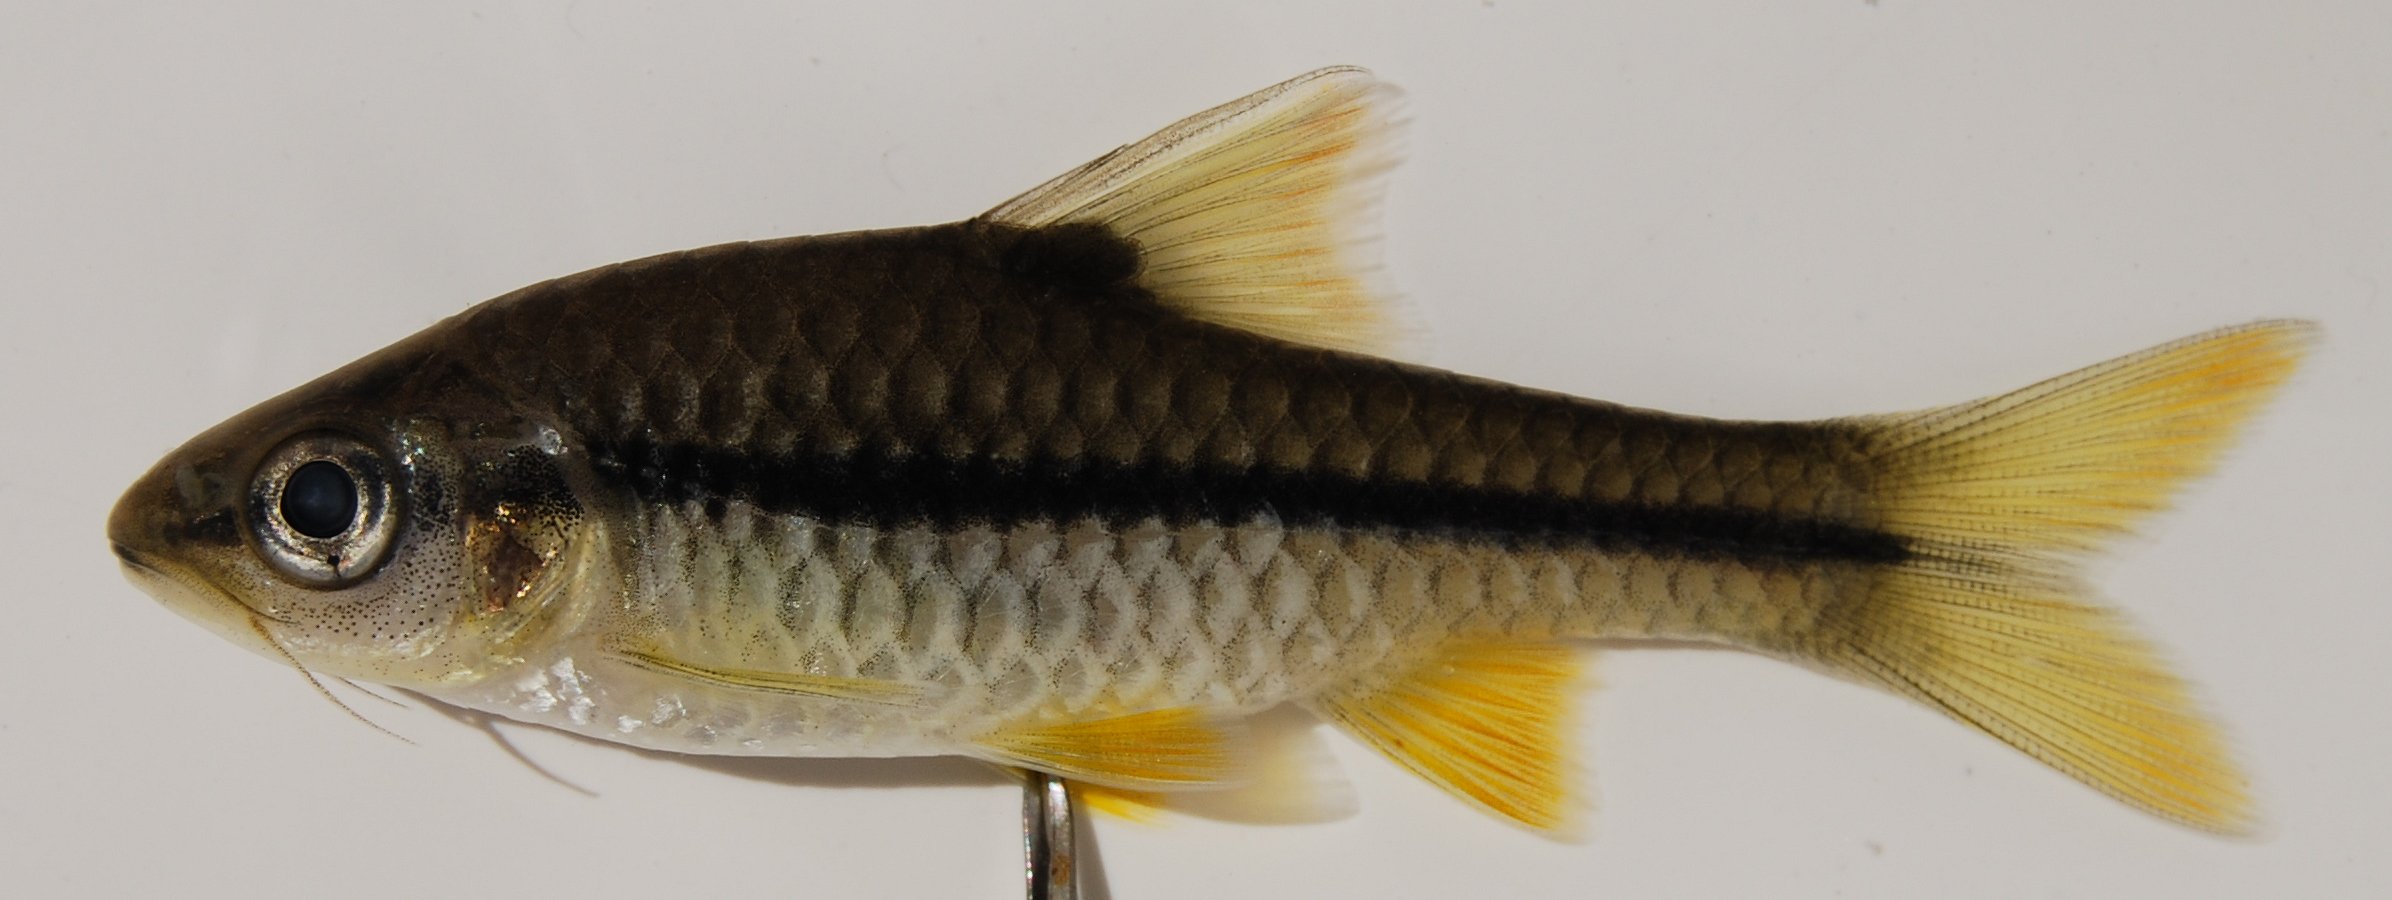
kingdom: Animalia
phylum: Chordata
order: Cypriniformes
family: Cyprinidae
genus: Enteromius
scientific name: Enteromius miolepis
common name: Zigzag barb
